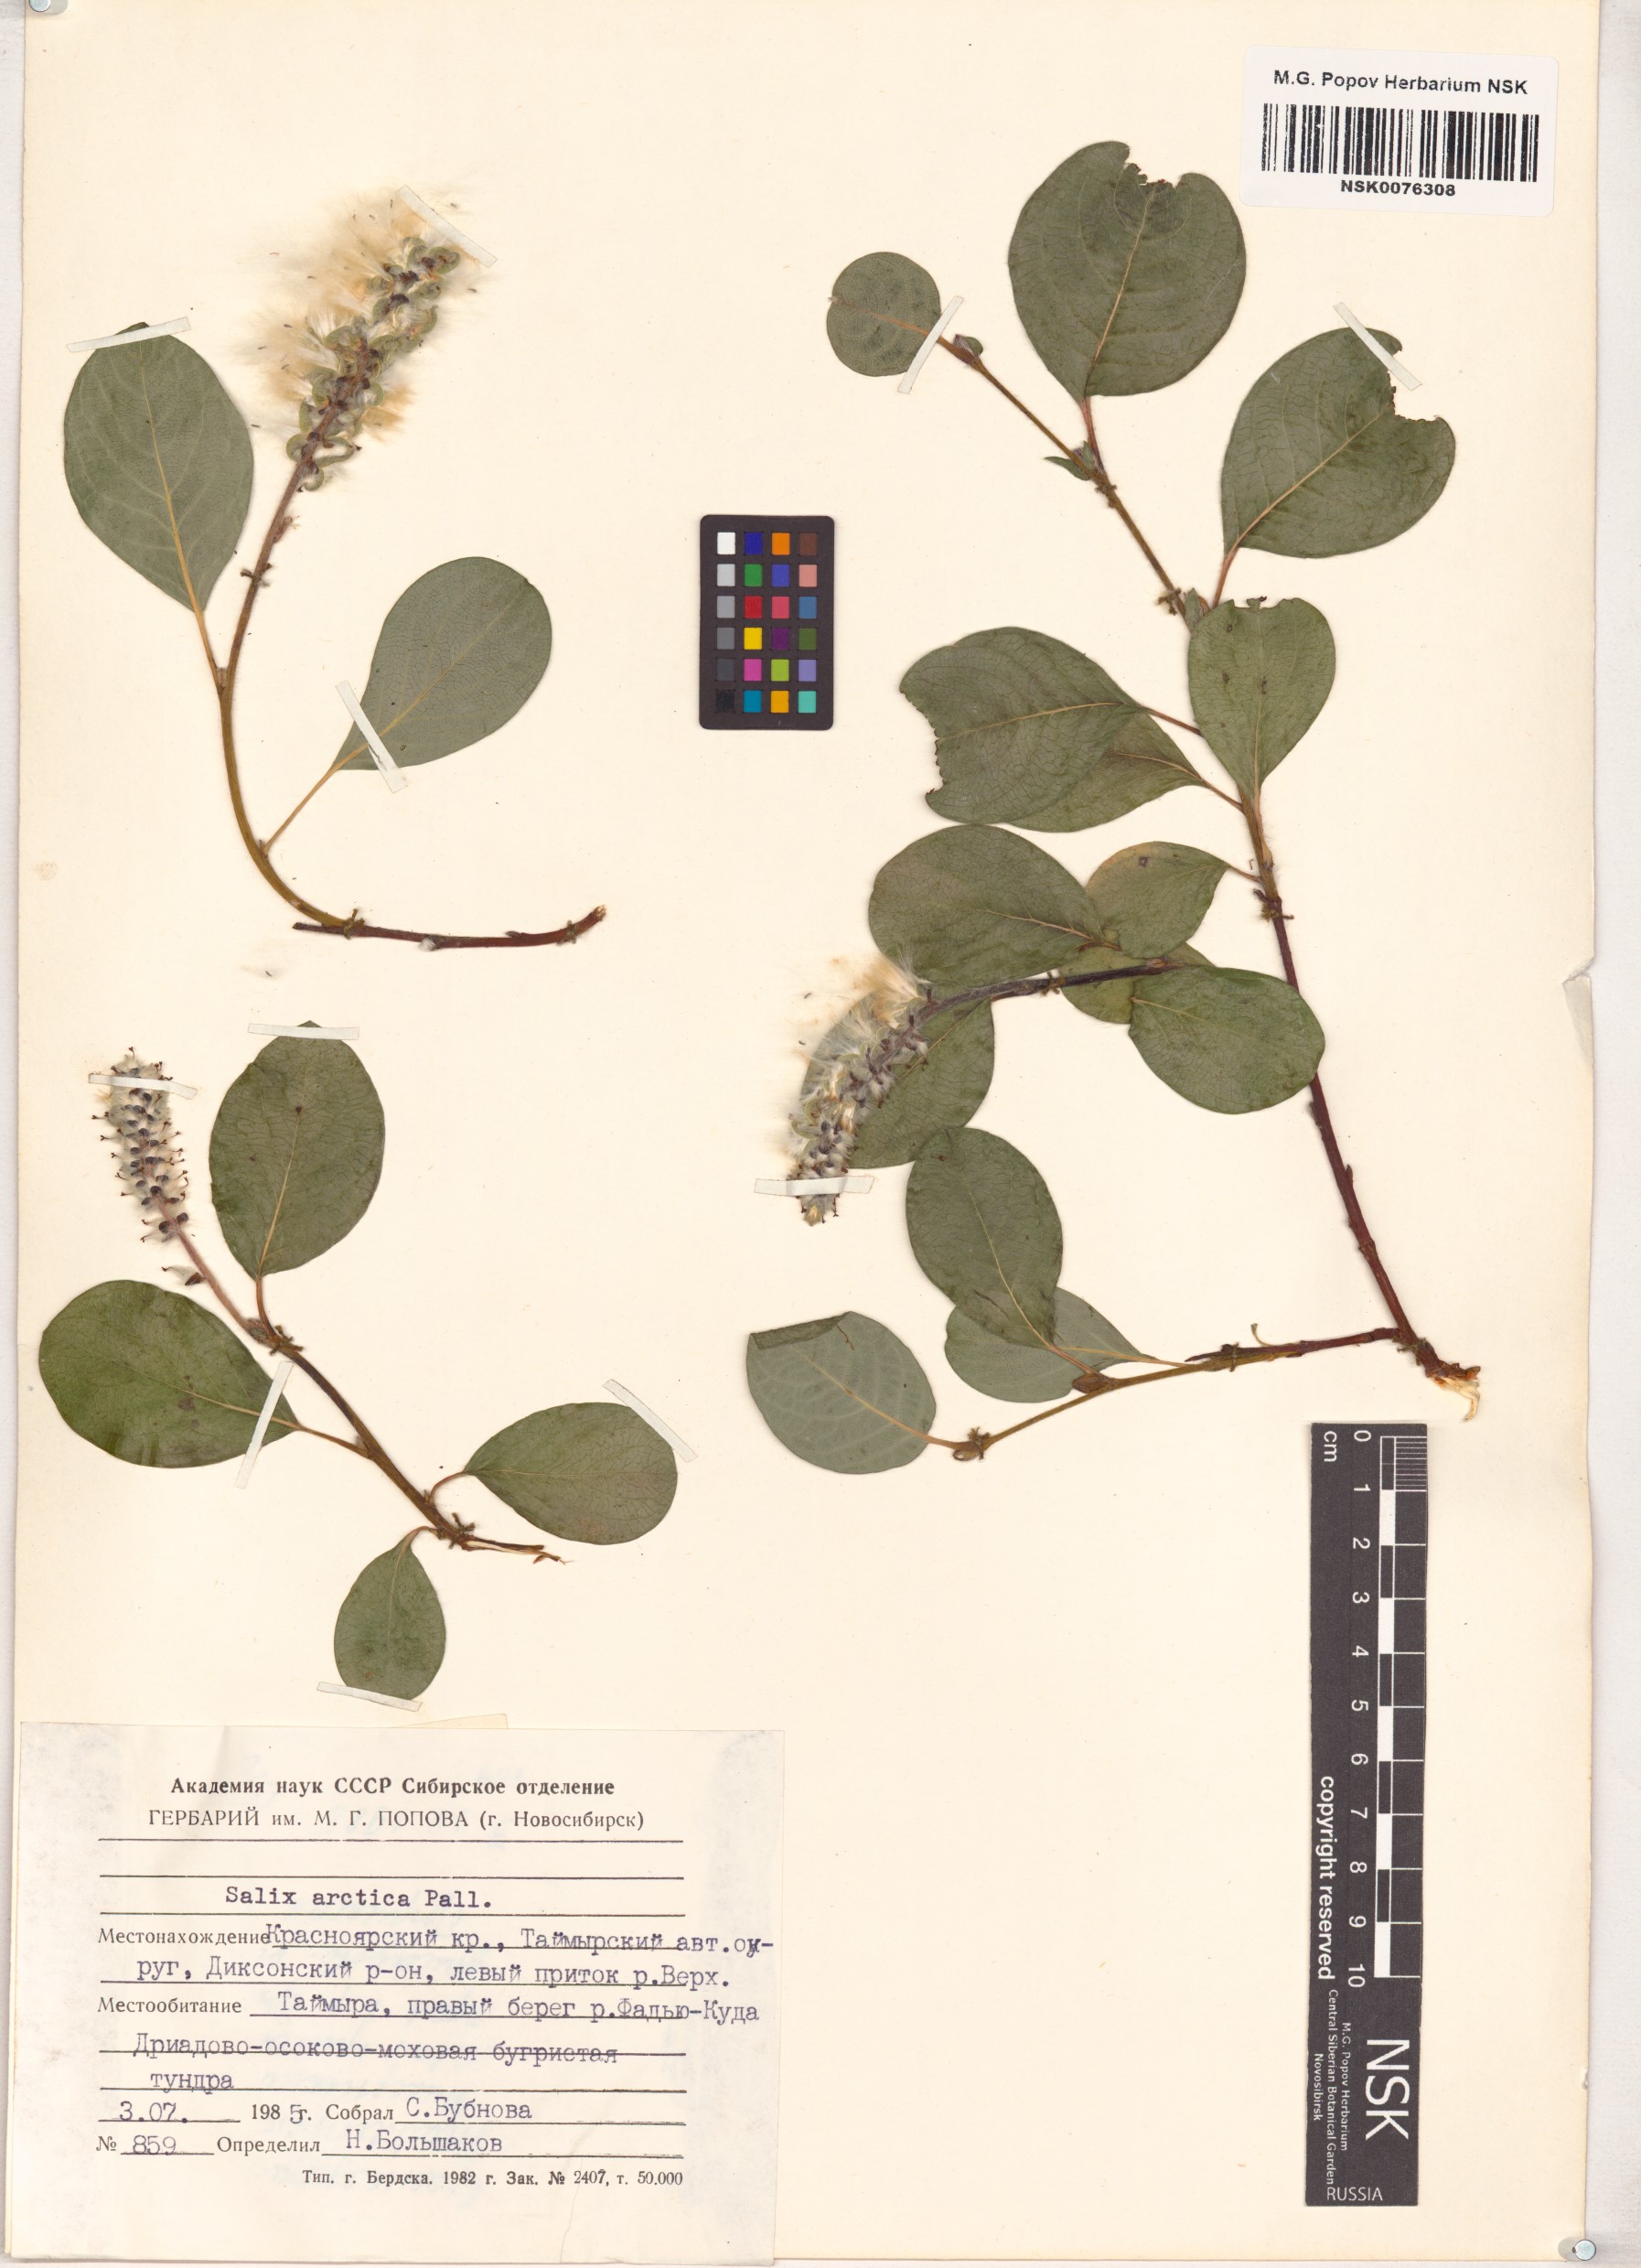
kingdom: Plantae
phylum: Tracheophyta
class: Magnoliopsida
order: Malpighiales
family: Salicaceae
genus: Salix
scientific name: Salix arctica
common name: Arctic willow
